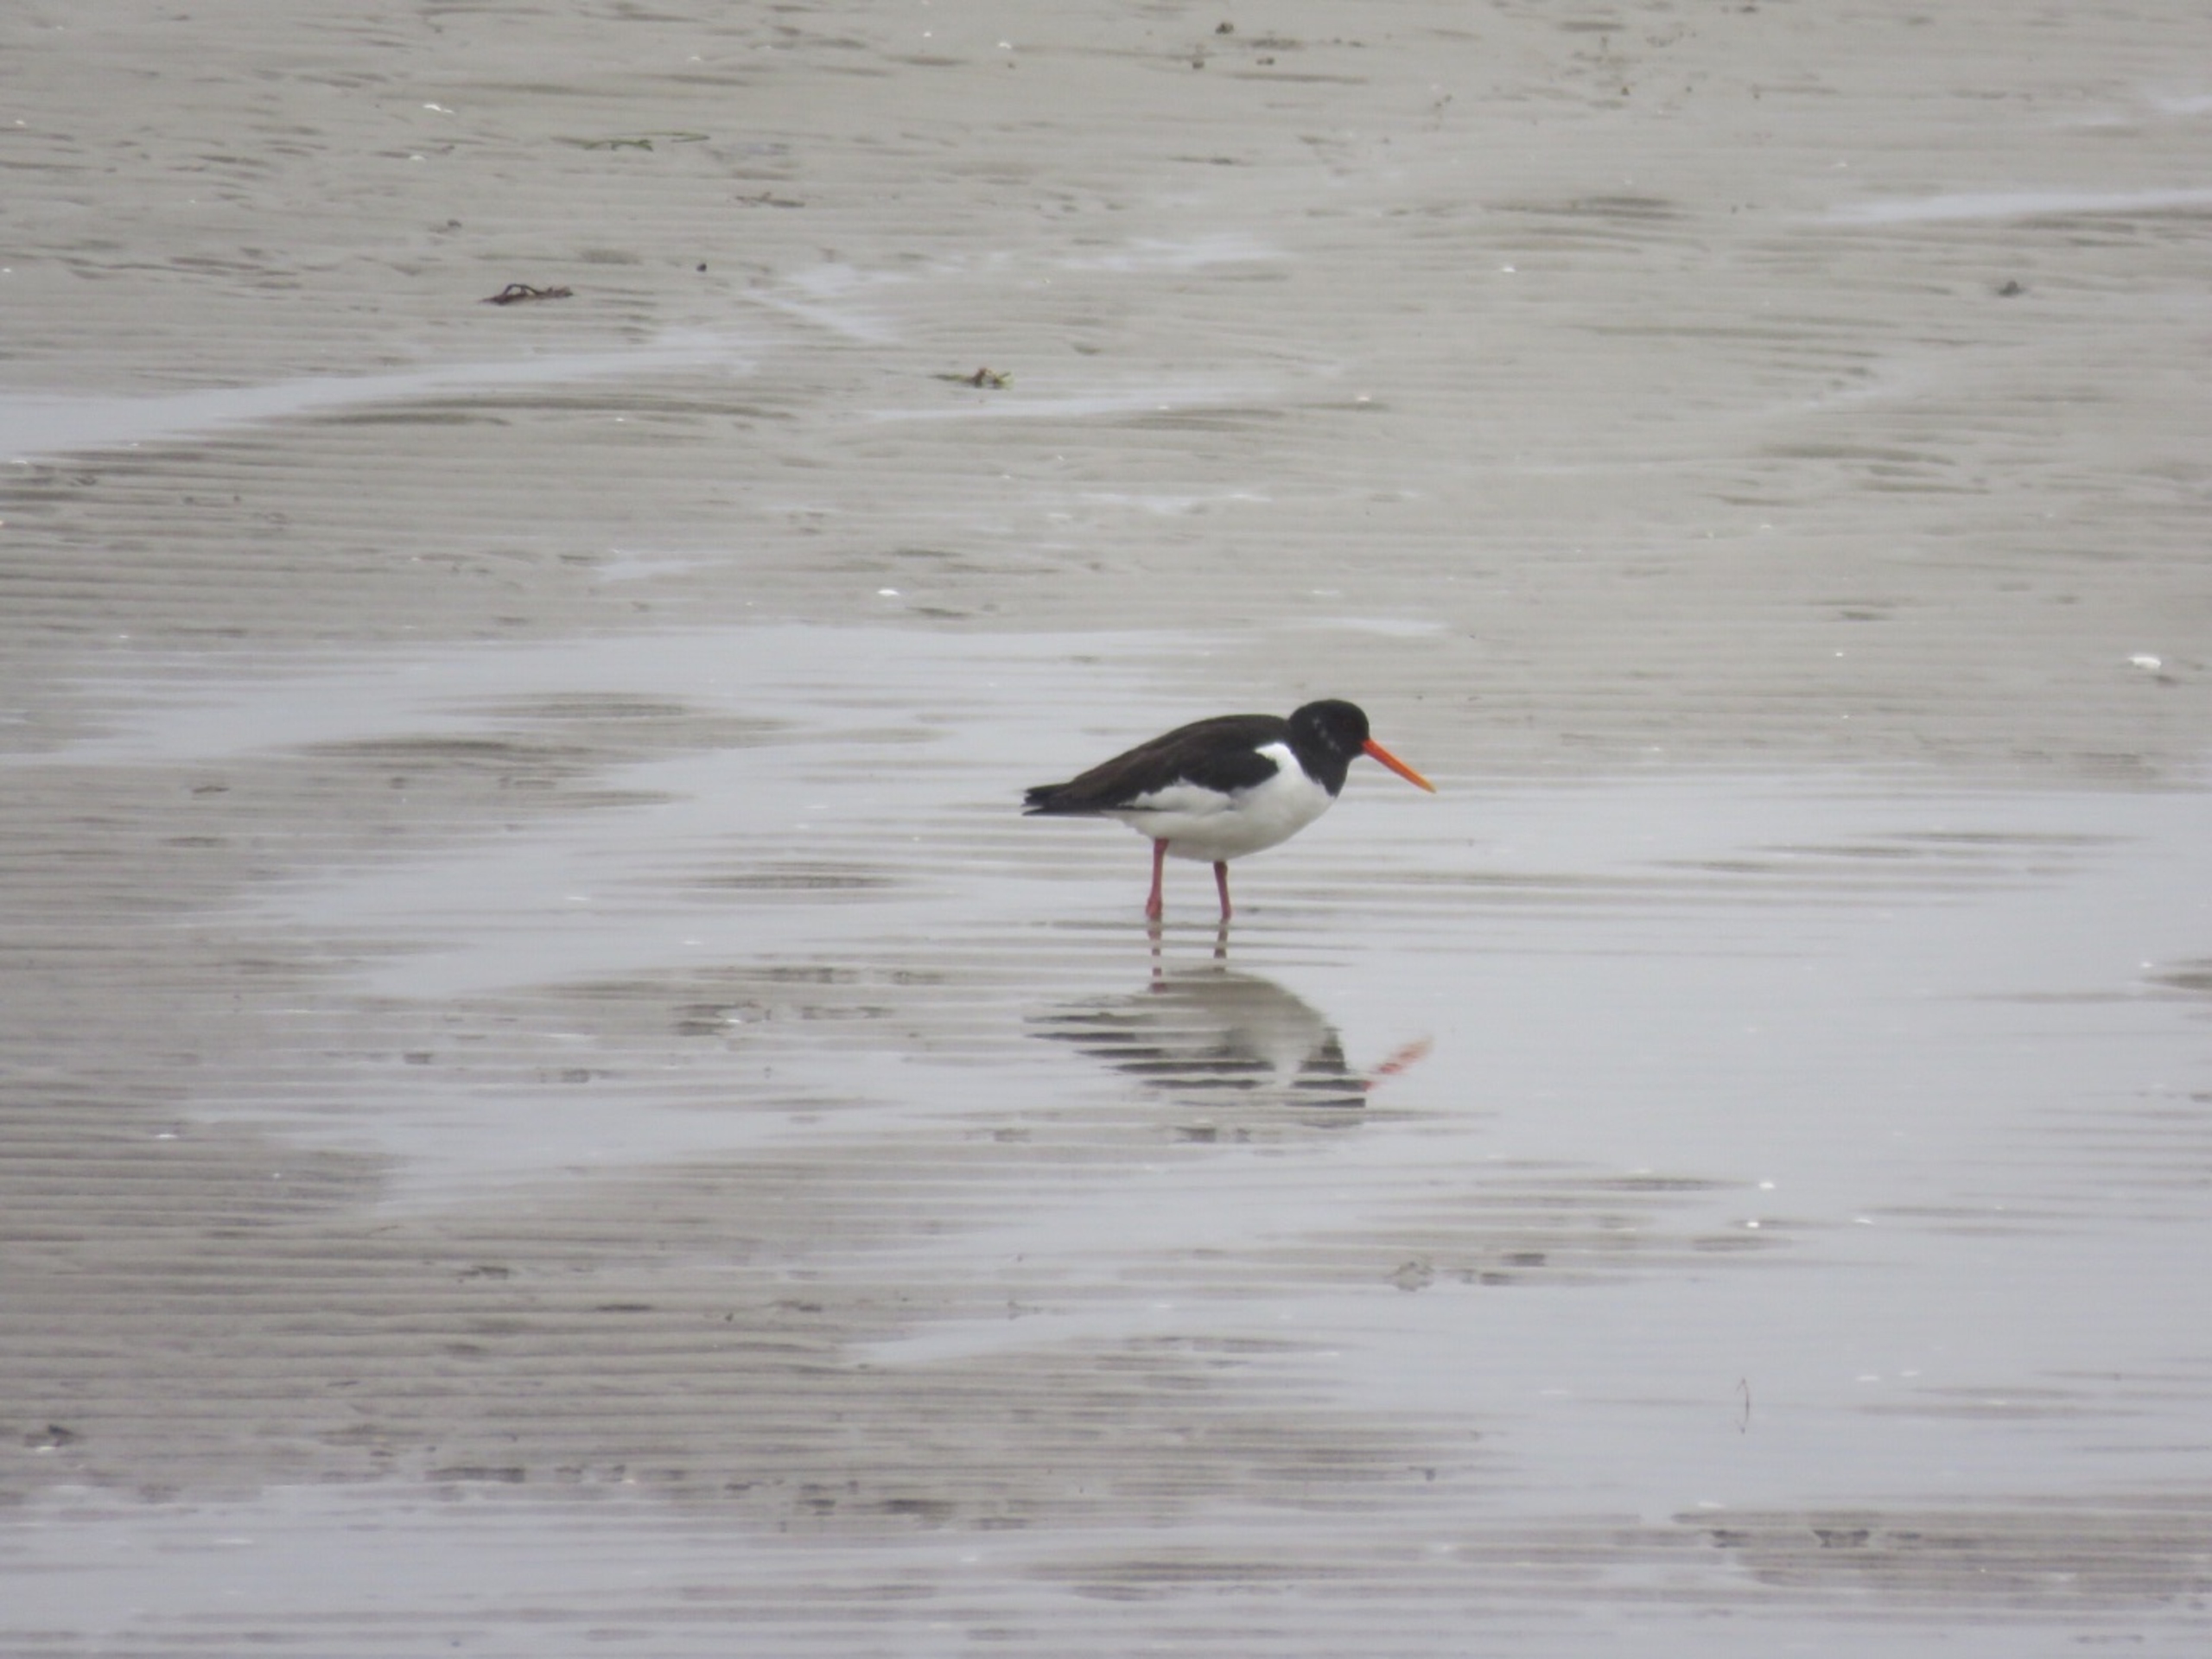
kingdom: Animalia
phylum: Chordata
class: Aves
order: Charadriiformes
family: Haematopodidae
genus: Haematopus
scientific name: Haematopus ostralegus
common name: Strandskade
